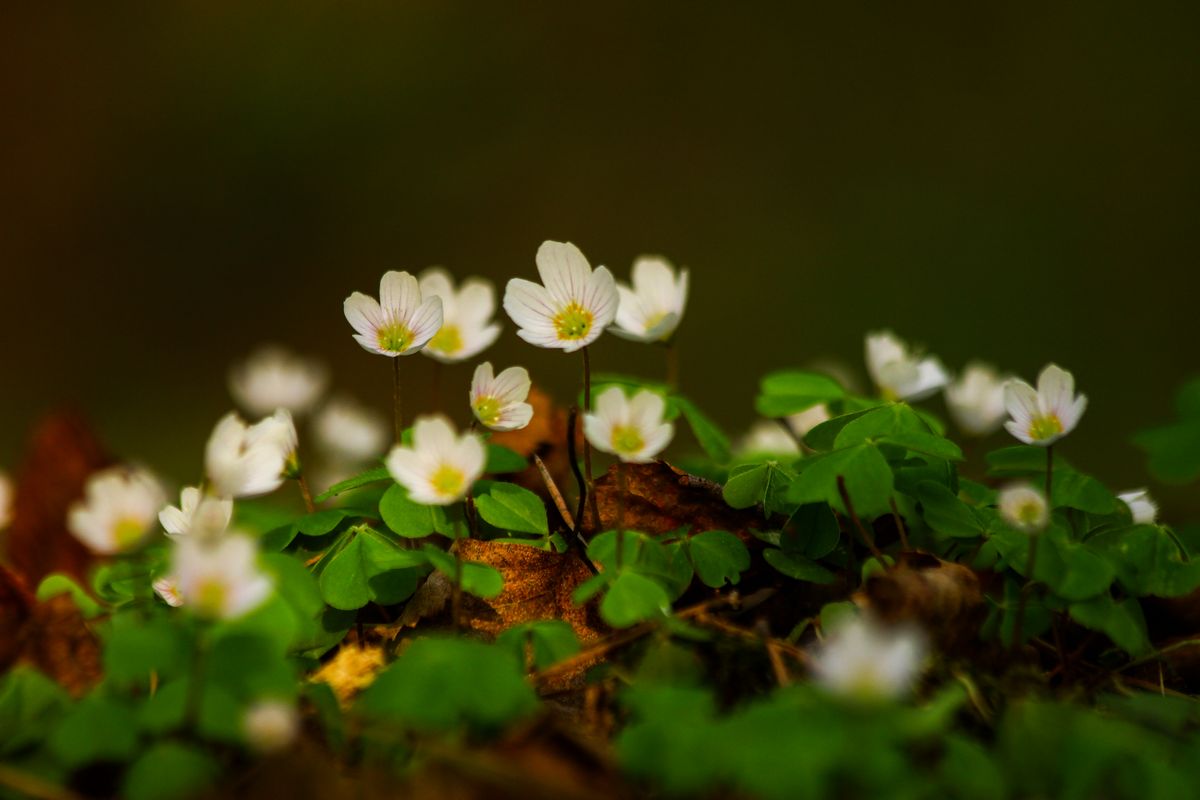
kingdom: Plantae
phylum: Tracheophyta
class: Magnoliopsida
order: Oxalidales
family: Oxalidaceae
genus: Oxalis
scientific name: Oxalis acetosella
